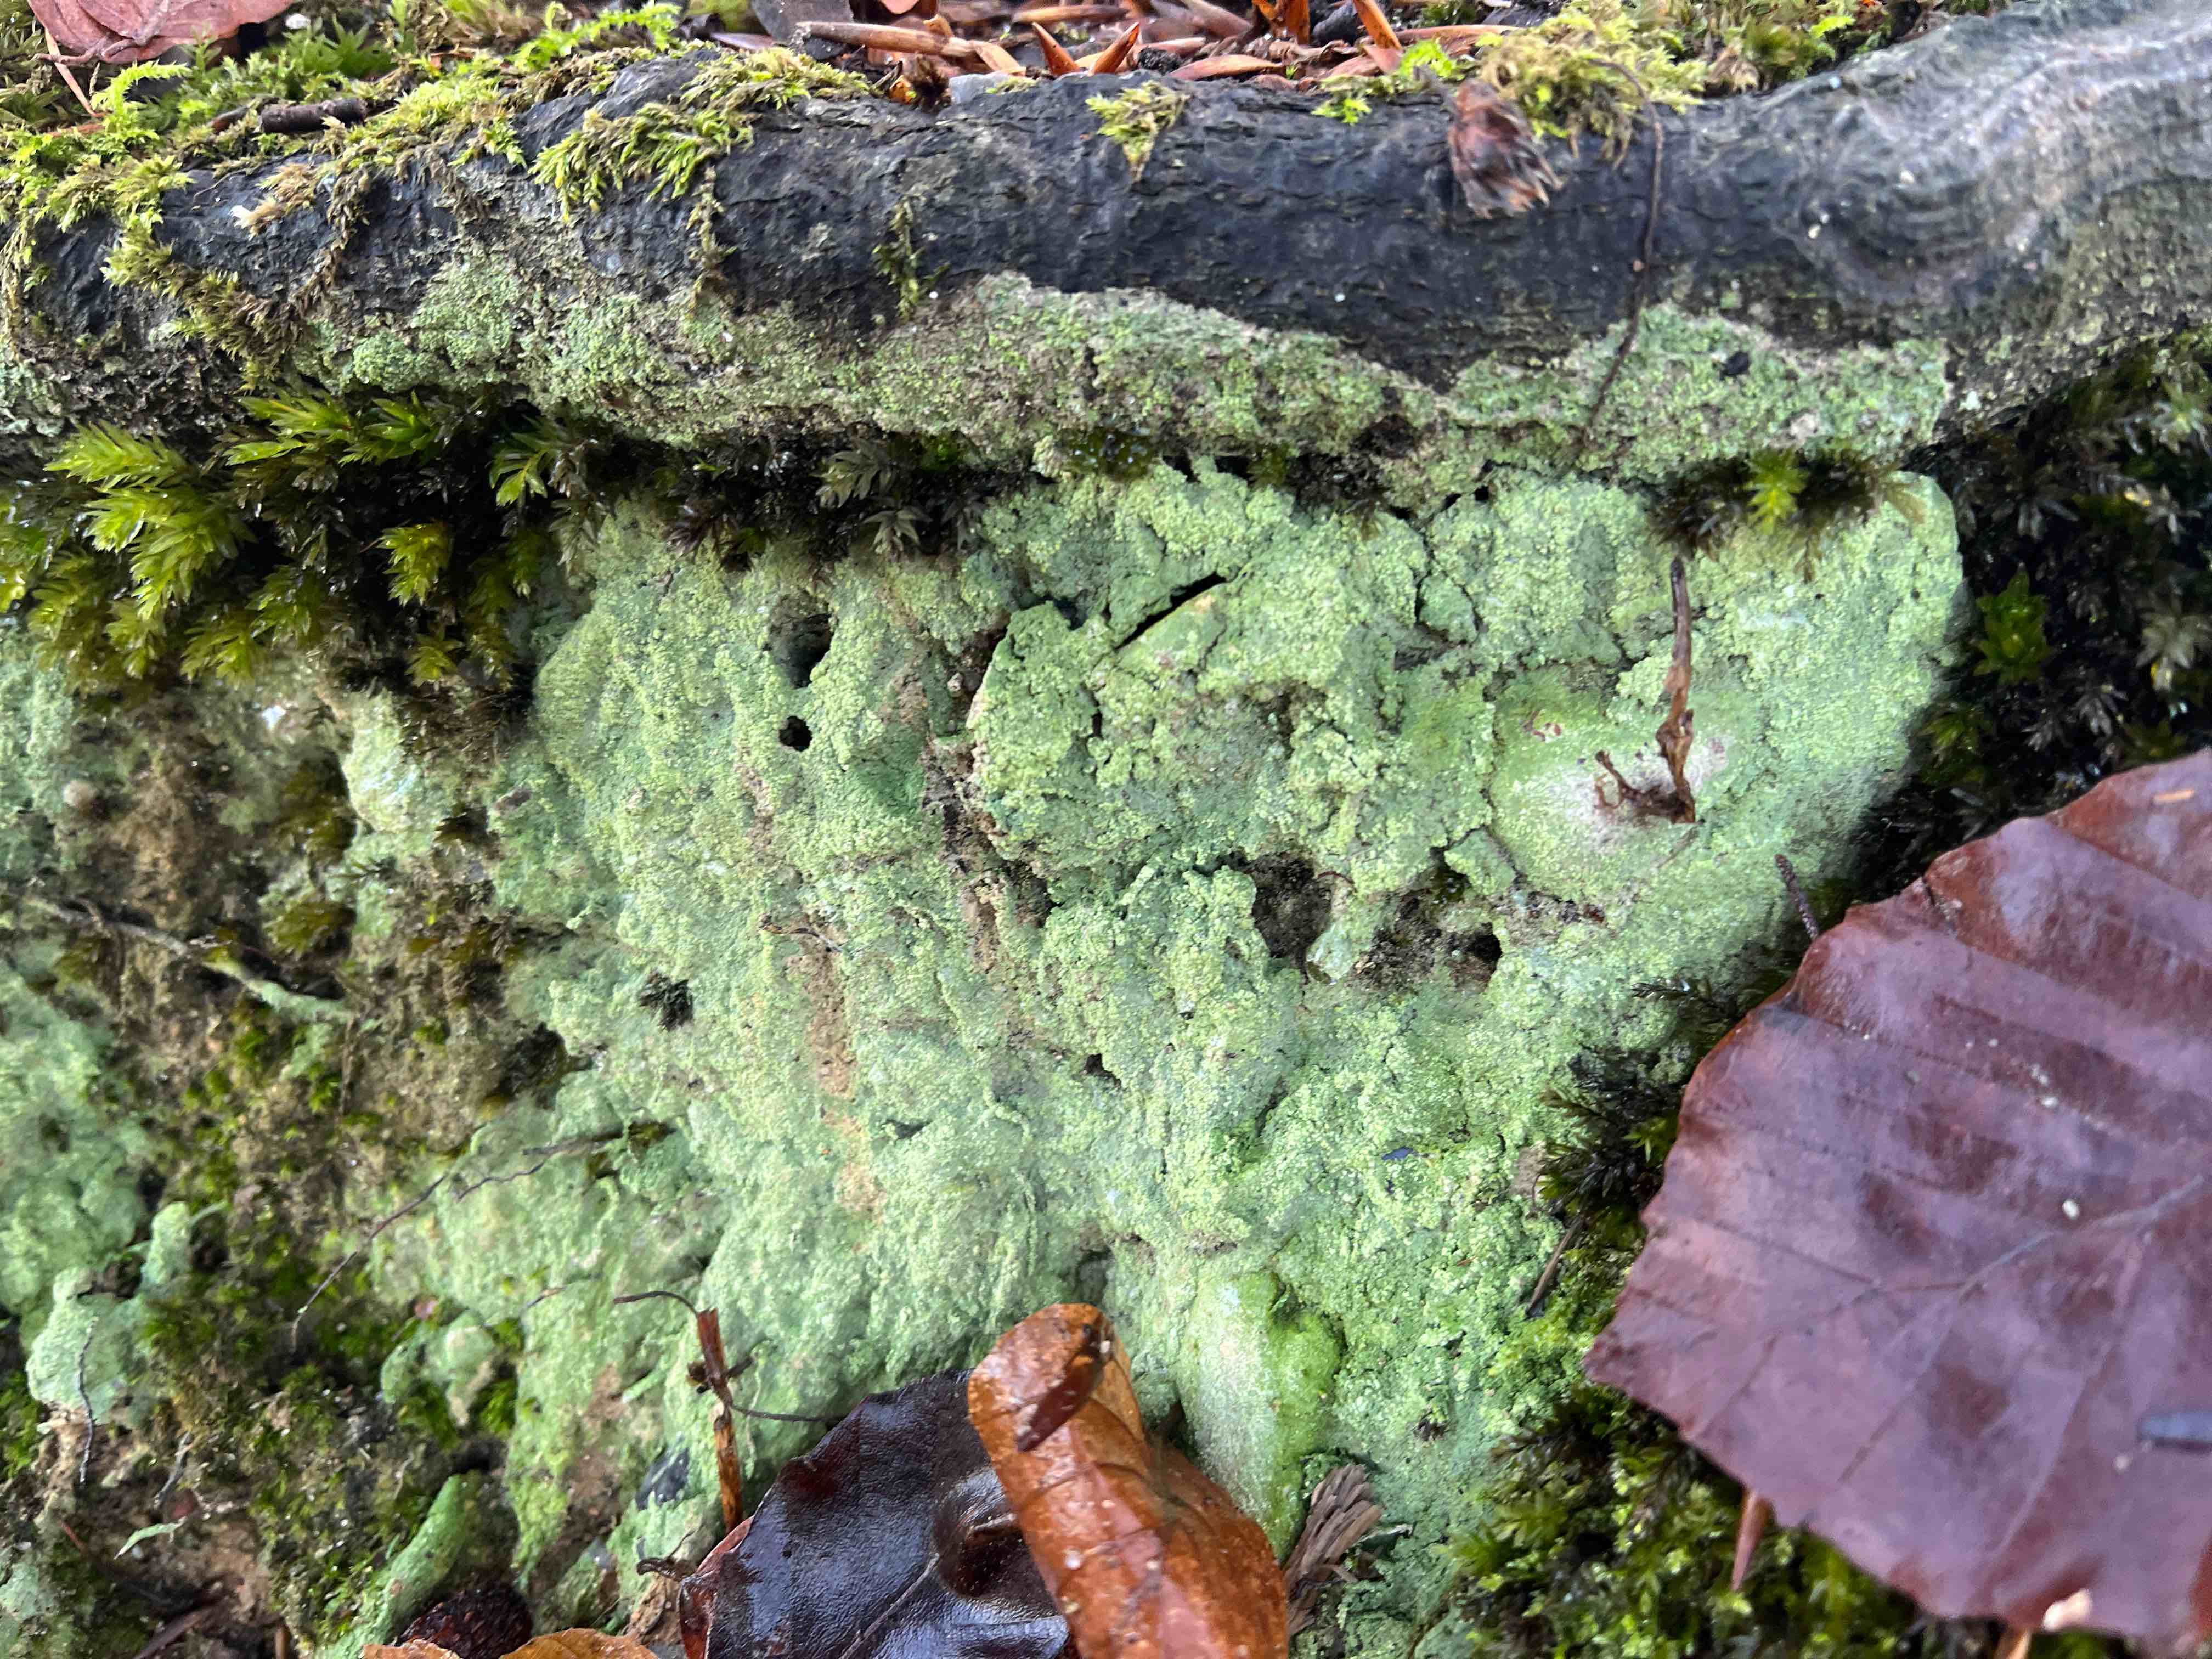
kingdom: Fungi
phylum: Ascomycota
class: Lecanoromycetes
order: Baeomycetales
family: Baeomycetaceae
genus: Baeomyces
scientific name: Baeomyces rufus
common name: rødbrun svampelav
